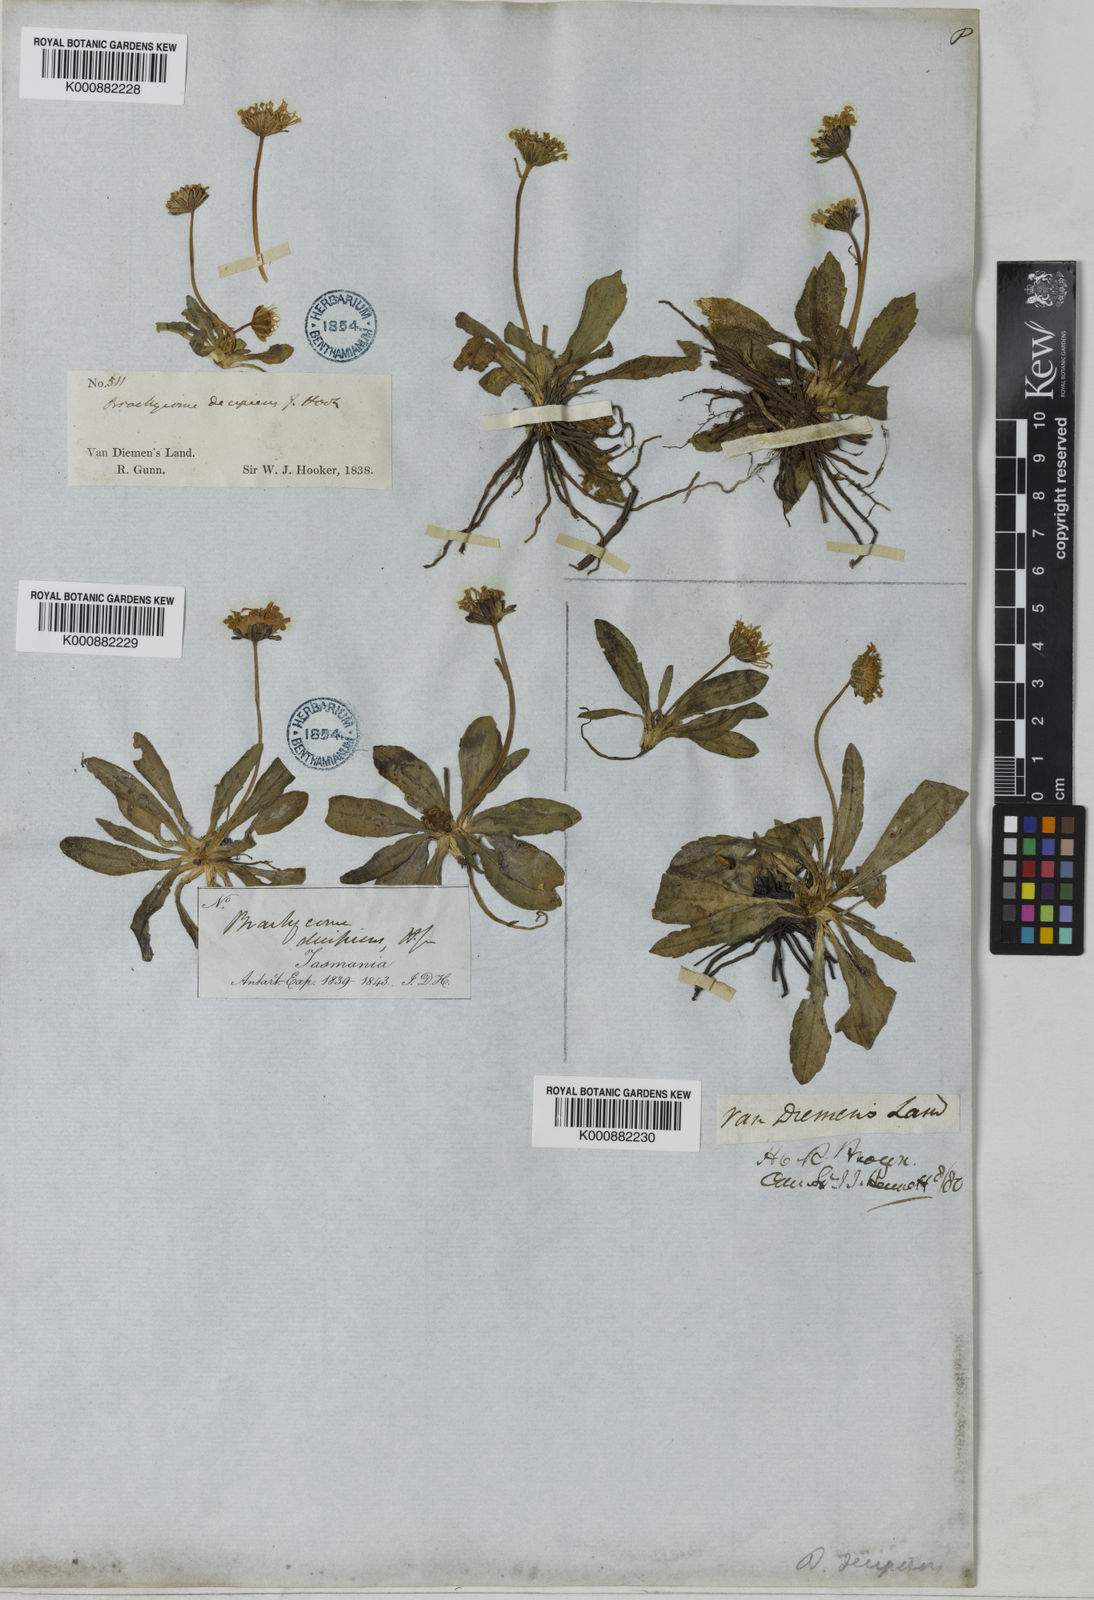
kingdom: Plantae
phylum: Tracheophyta
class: Magnoliopsida
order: Asterales
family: Asteraceae
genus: Brachyscome
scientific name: Brachyscome decipiens
